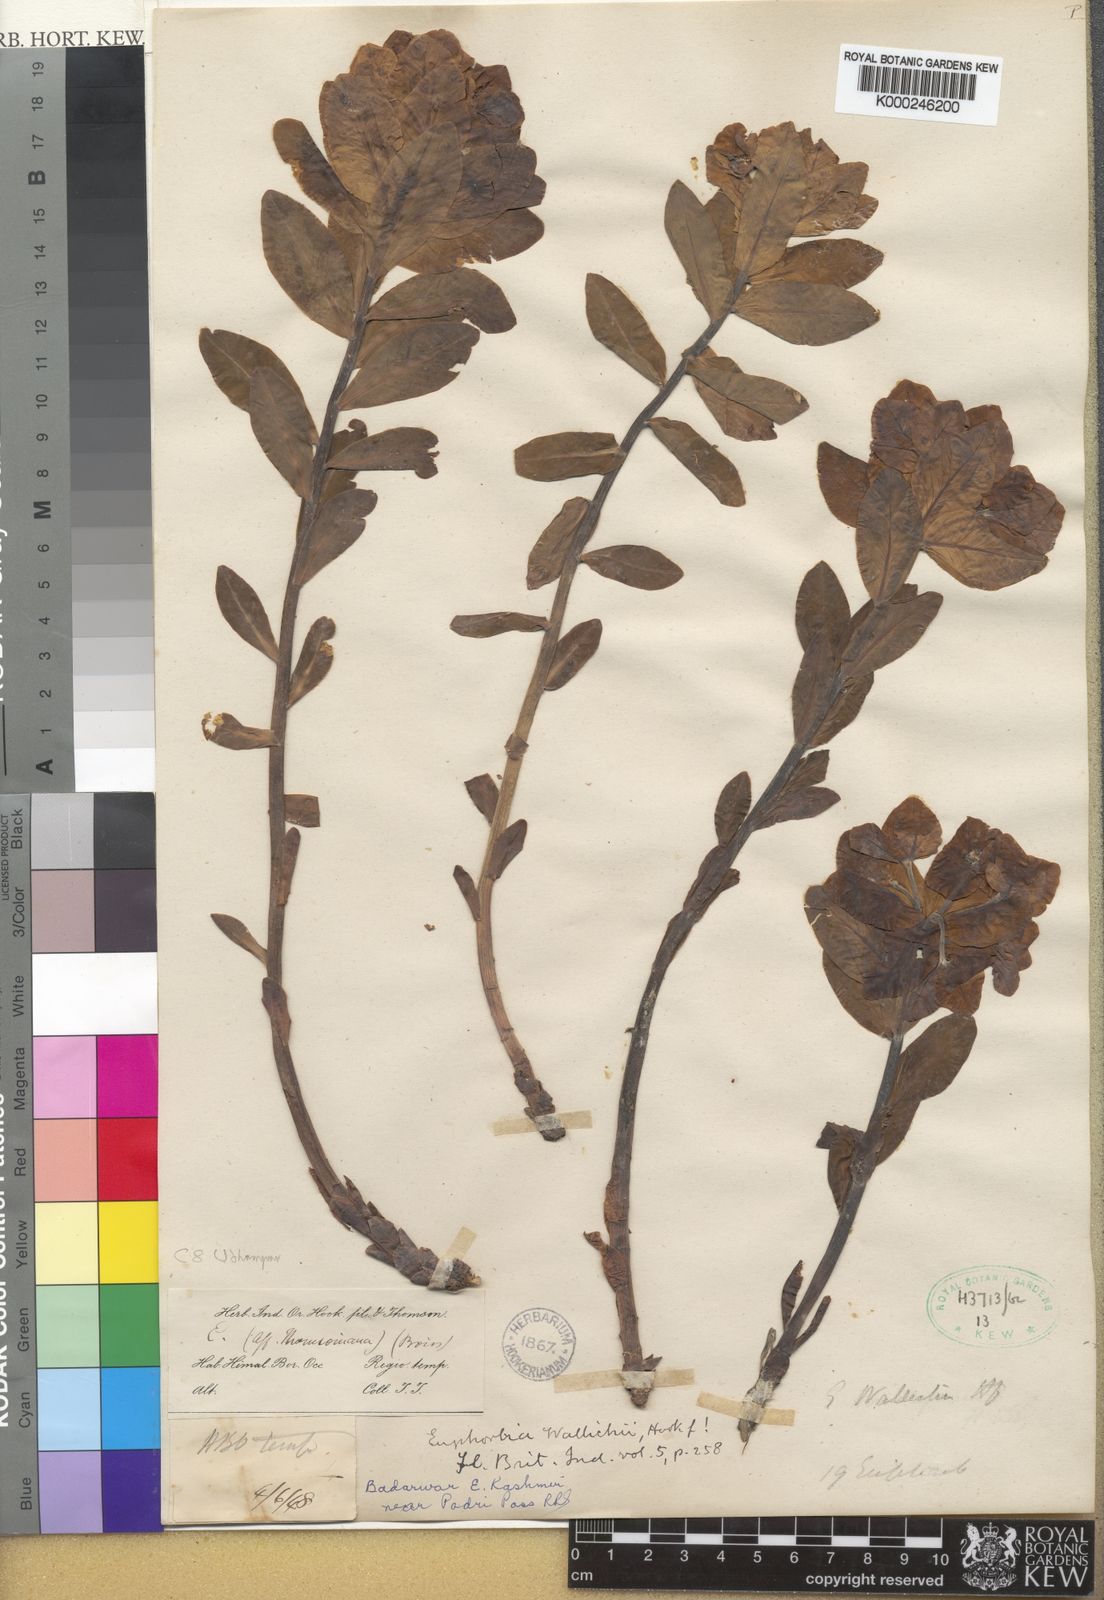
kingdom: Plantae
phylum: Tracheophyta
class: Magnoliopsida
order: Malpighiales
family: Euphorbiaceae
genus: Euphorbia
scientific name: Euphorbia wallichii
